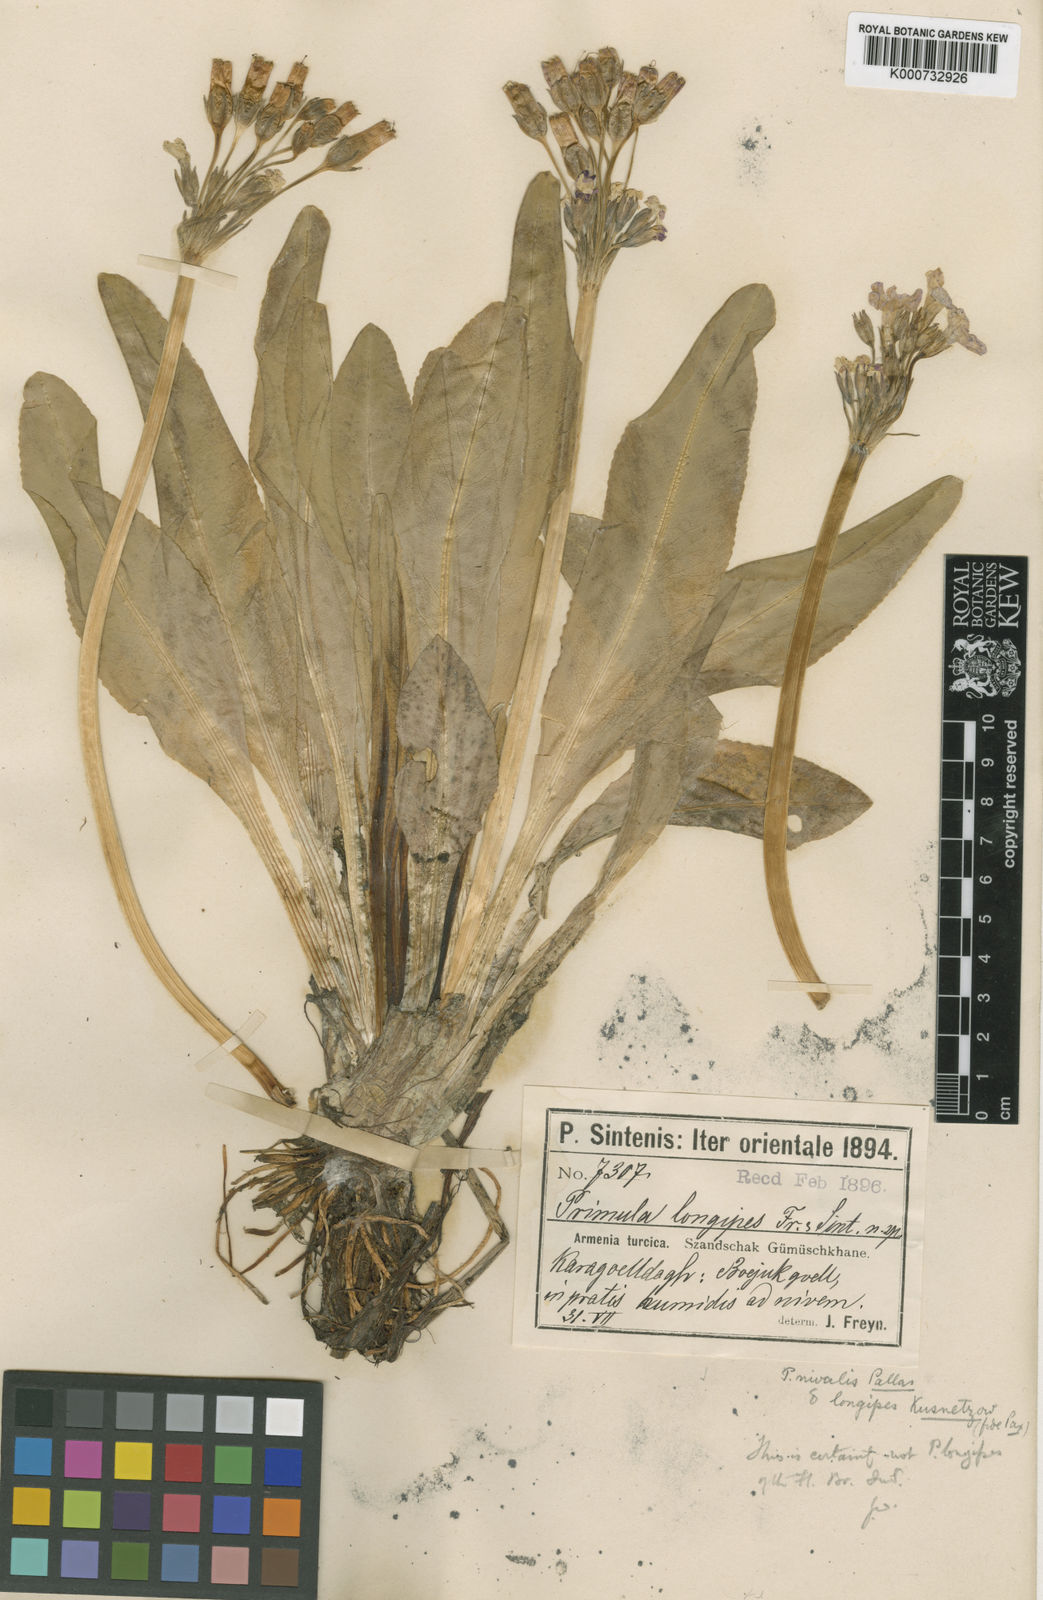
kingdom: Plantae
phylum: Tracheophyta
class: Magnoliopsida
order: Ericales
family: Primulaceae
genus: Primula
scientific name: Primula nivalis
